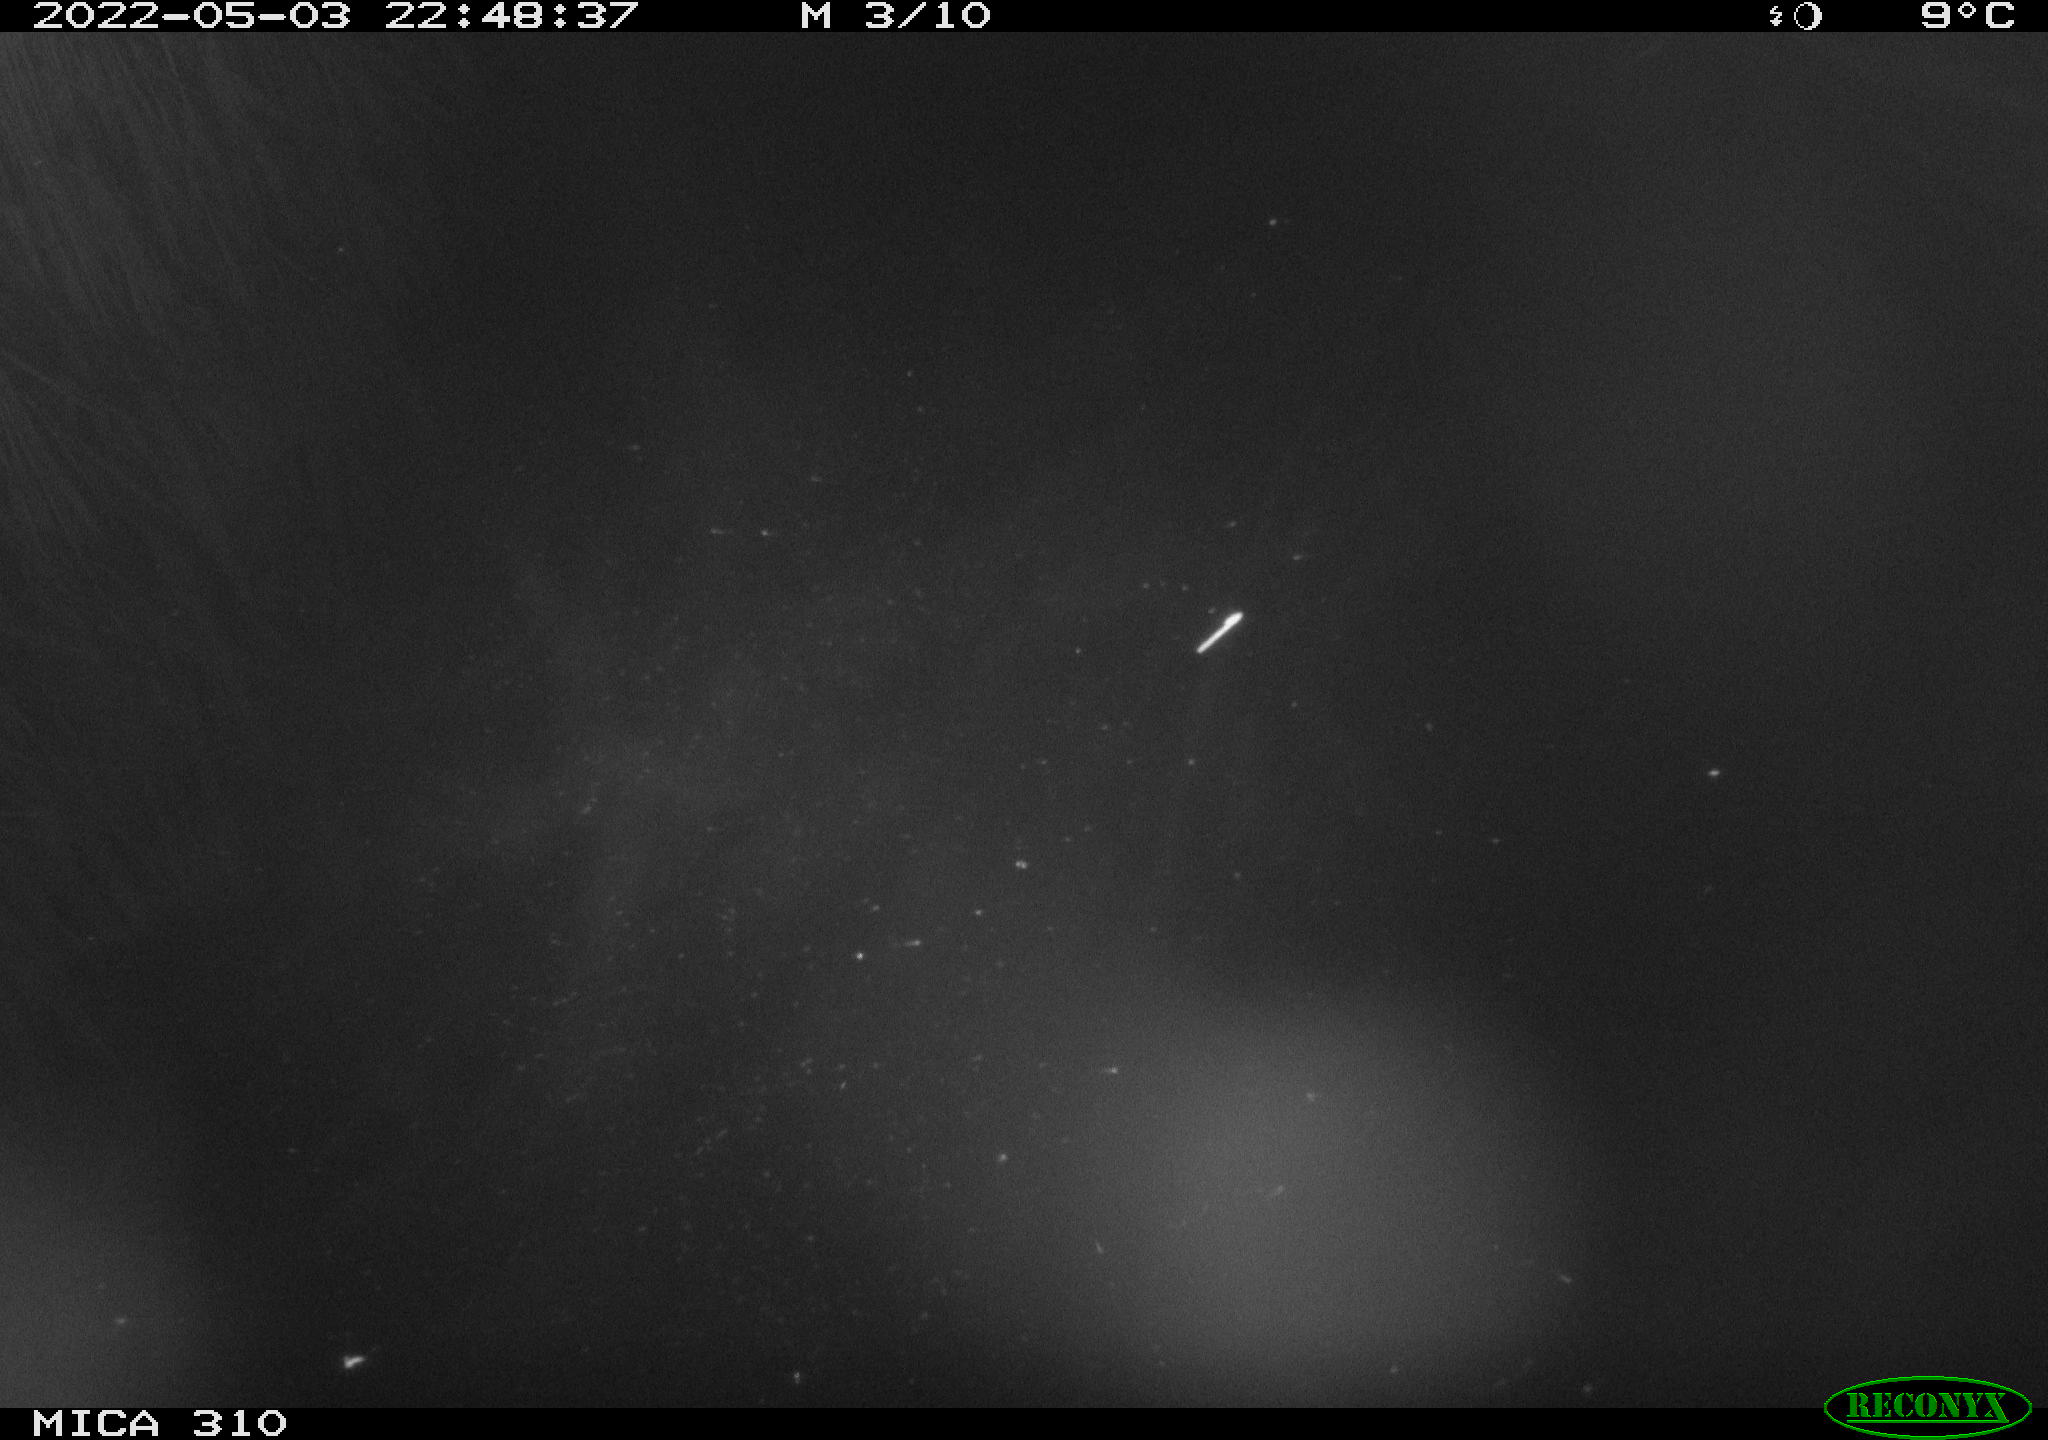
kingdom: Animalia
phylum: Chordata
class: Mammalia
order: Rodentia
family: Cricetidae
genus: Ondatra
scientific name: Ondatra zibethicus
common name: Muskrat
